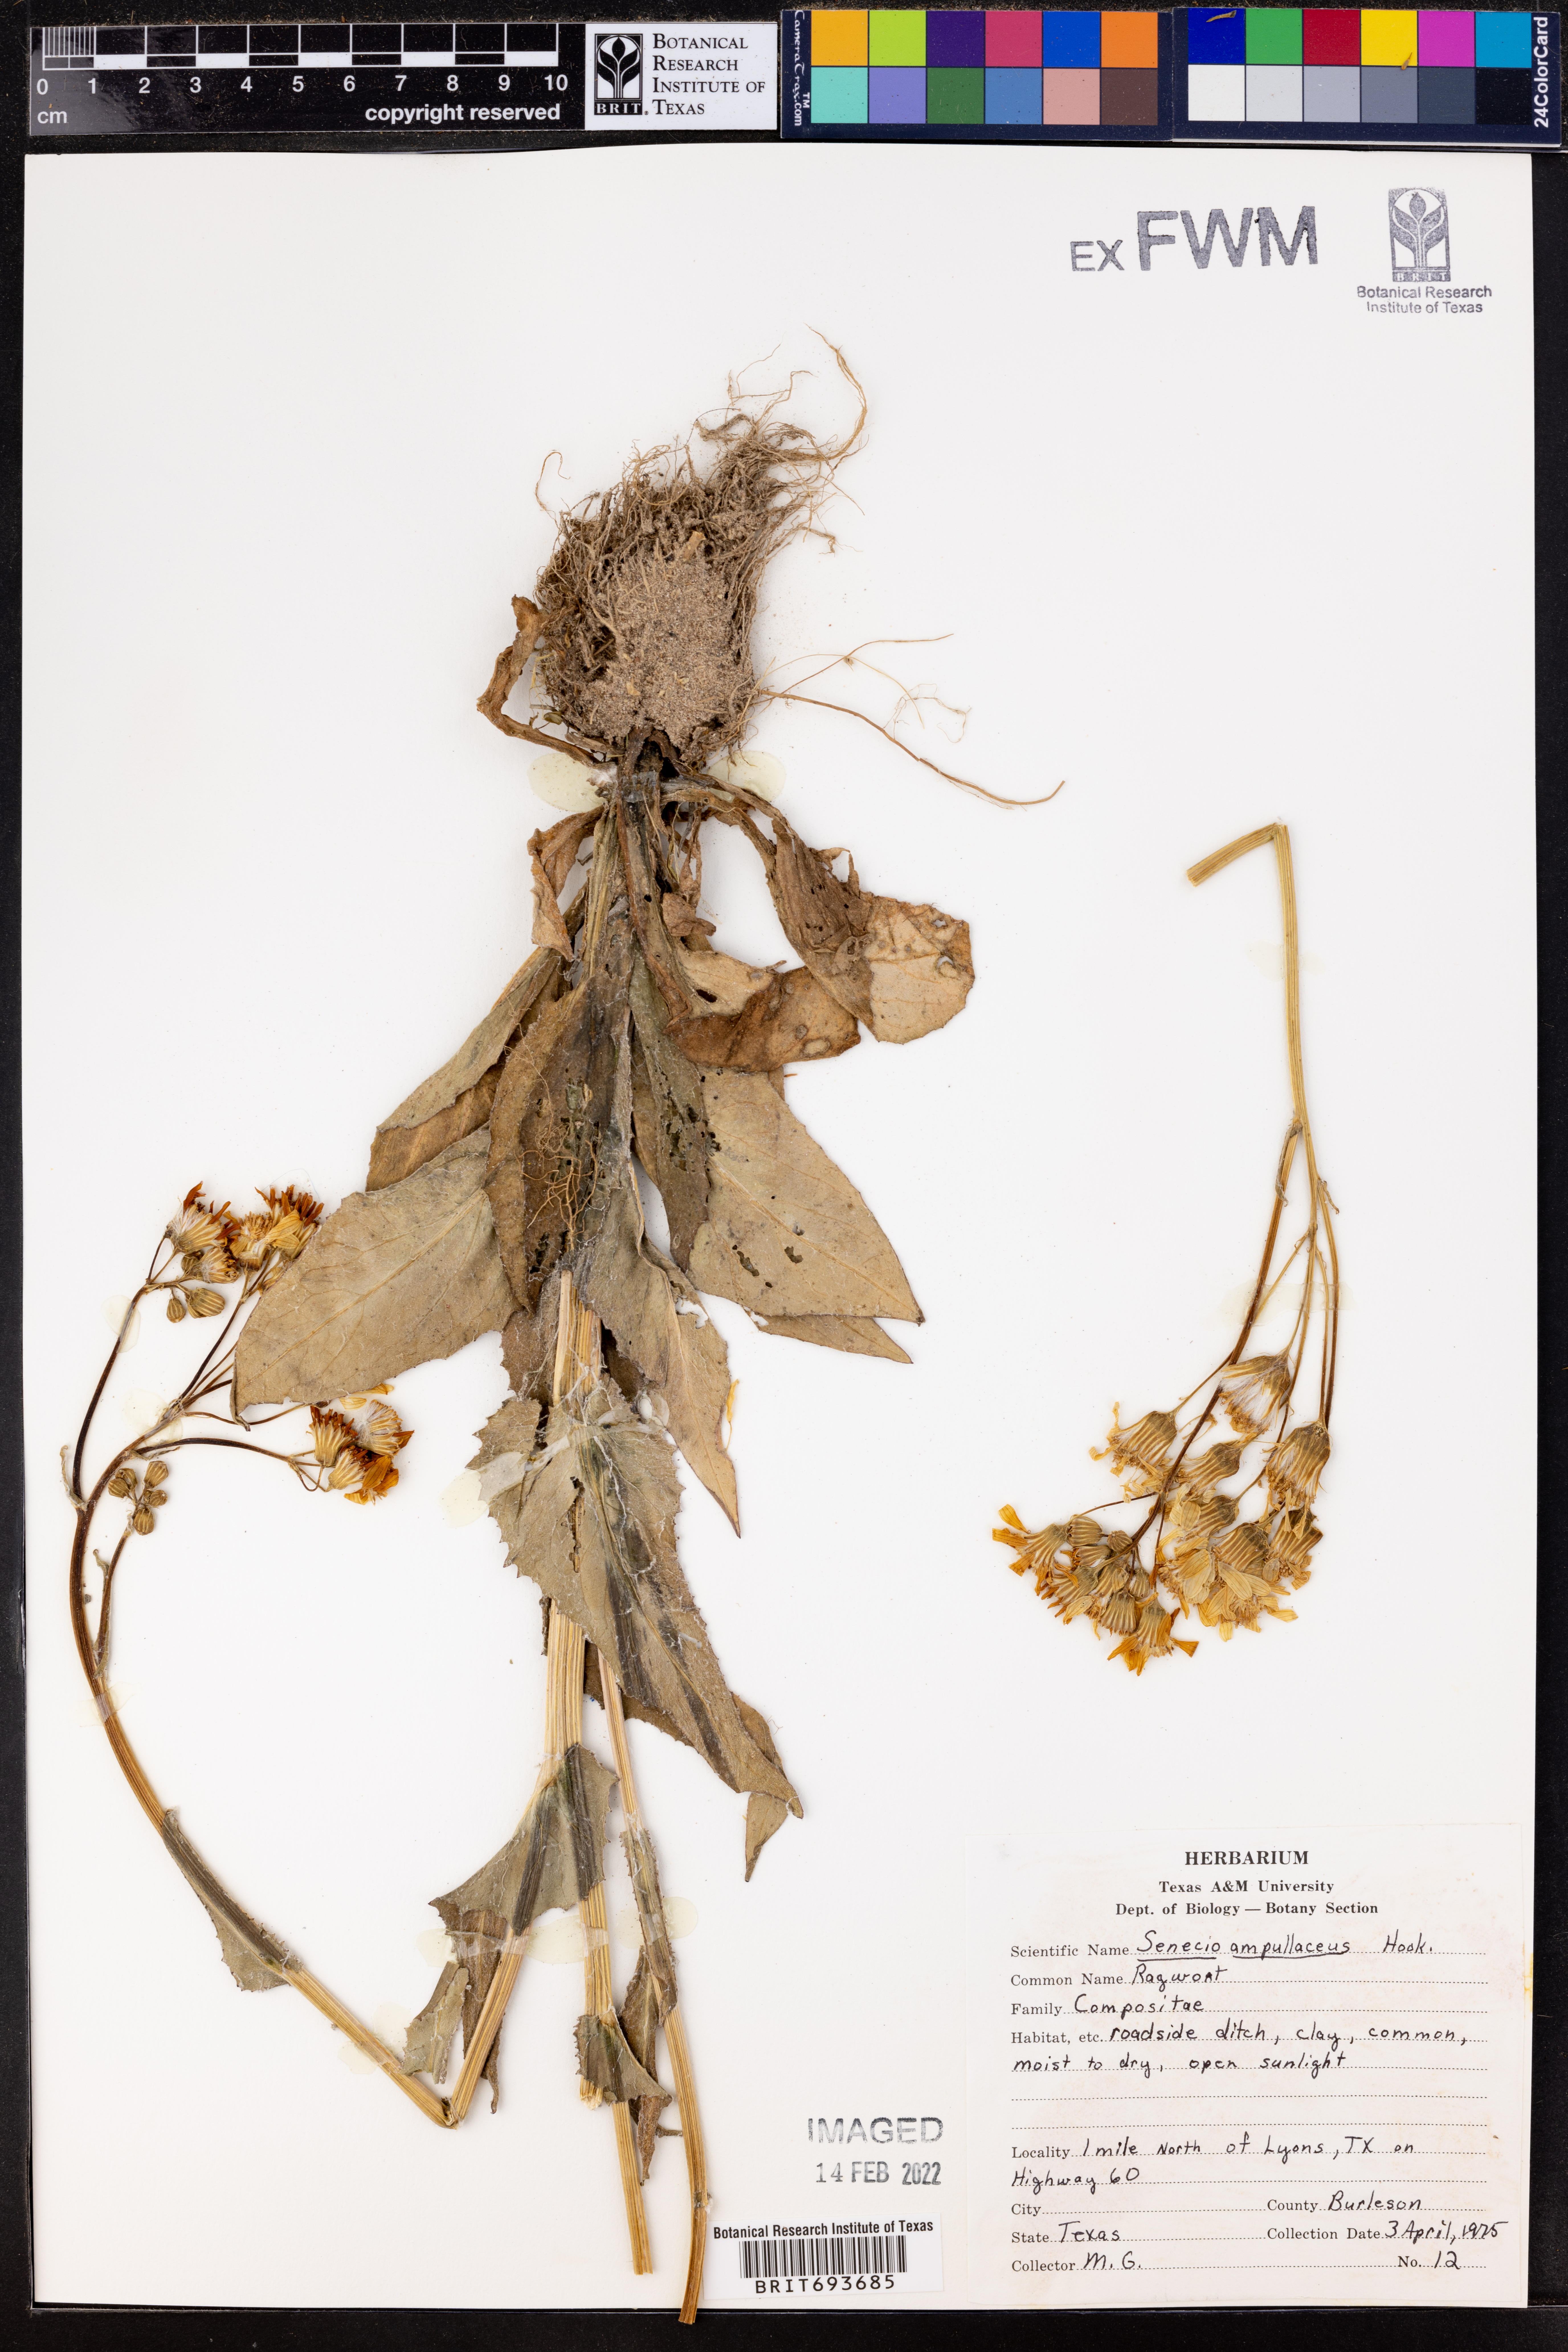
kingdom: Plantae
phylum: Tracheophyta
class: Magnoliopsida
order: Asterales
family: Asteraceae
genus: Senecio
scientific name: Senecio ampullaceus
